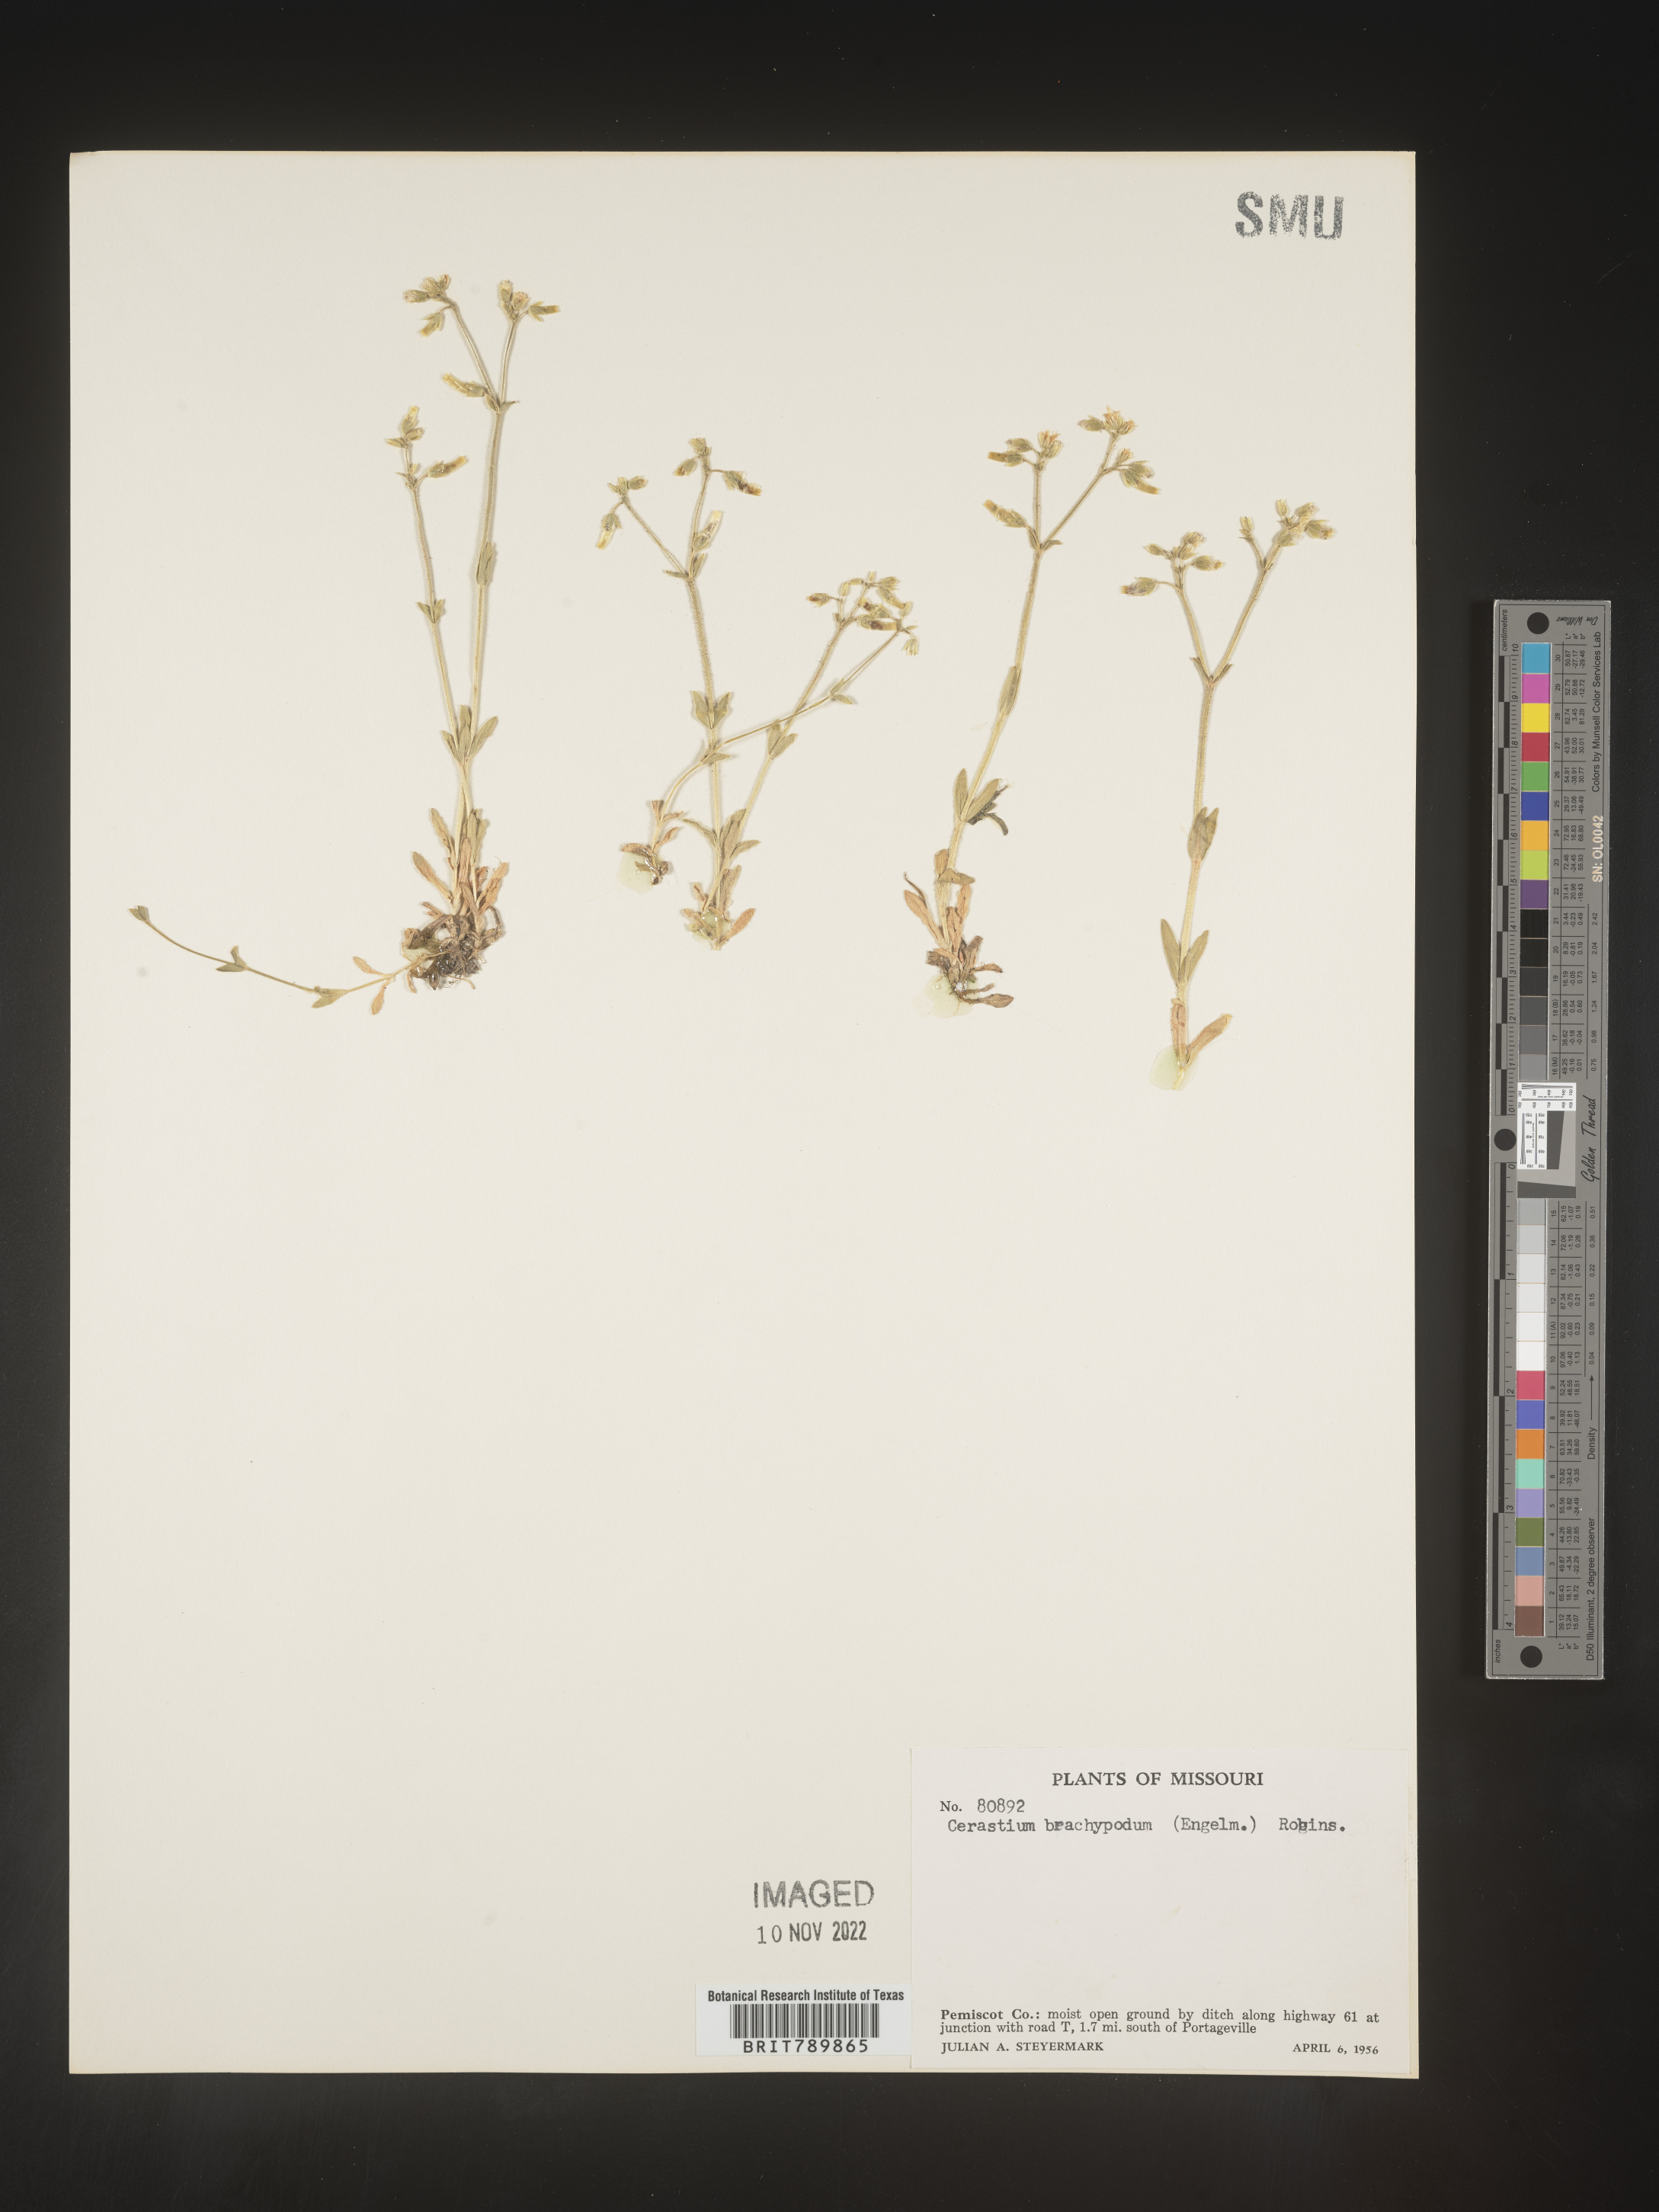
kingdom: Plantae
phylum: Tracheophyta
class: Magnoliopsida
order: Caryophyllales
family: Caryophyllaceae
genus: Cerastium
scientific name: Cerastium brachypodum
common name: Short-pedicelled nodding chickweed
